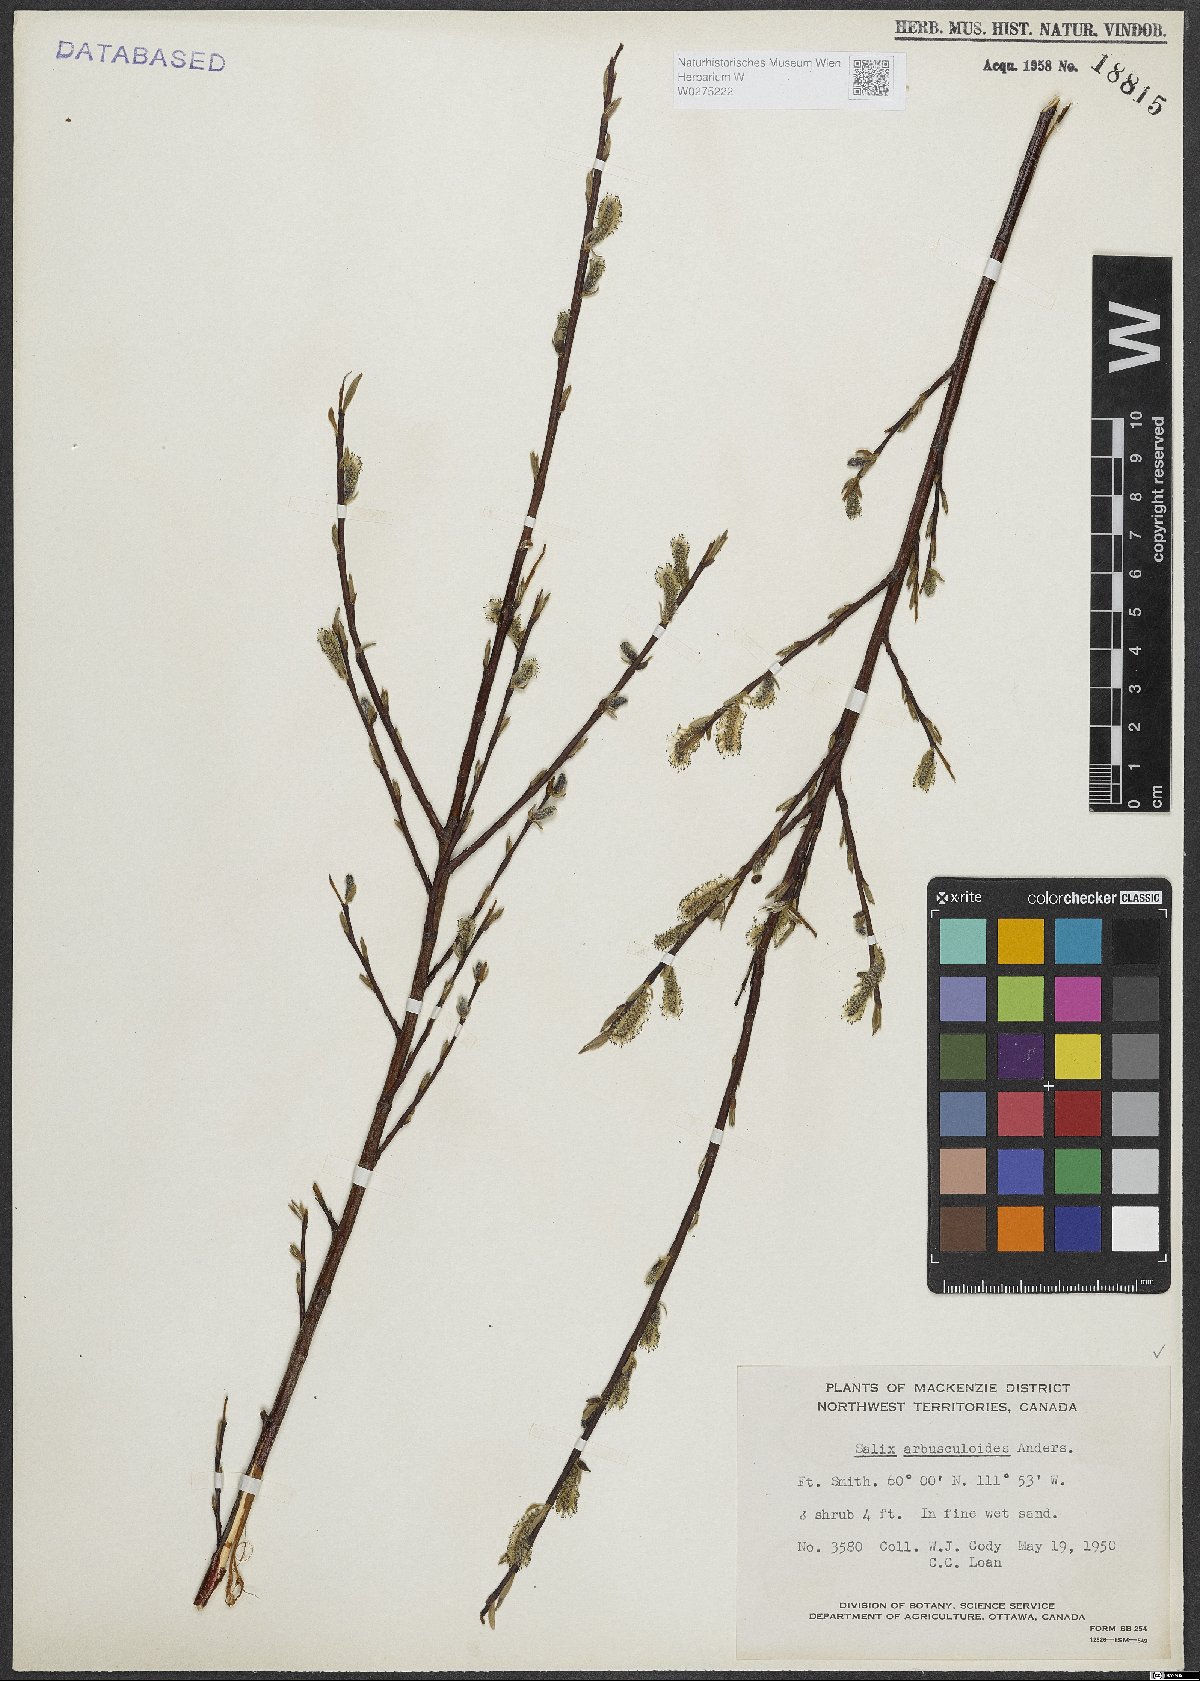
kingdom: Plantae
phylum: Tracheophyta
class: Magnoliopsida
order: Malpighiales
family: Salicaceae
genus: Salix
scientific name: Salix arbusculoides
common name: Little-tree willow
